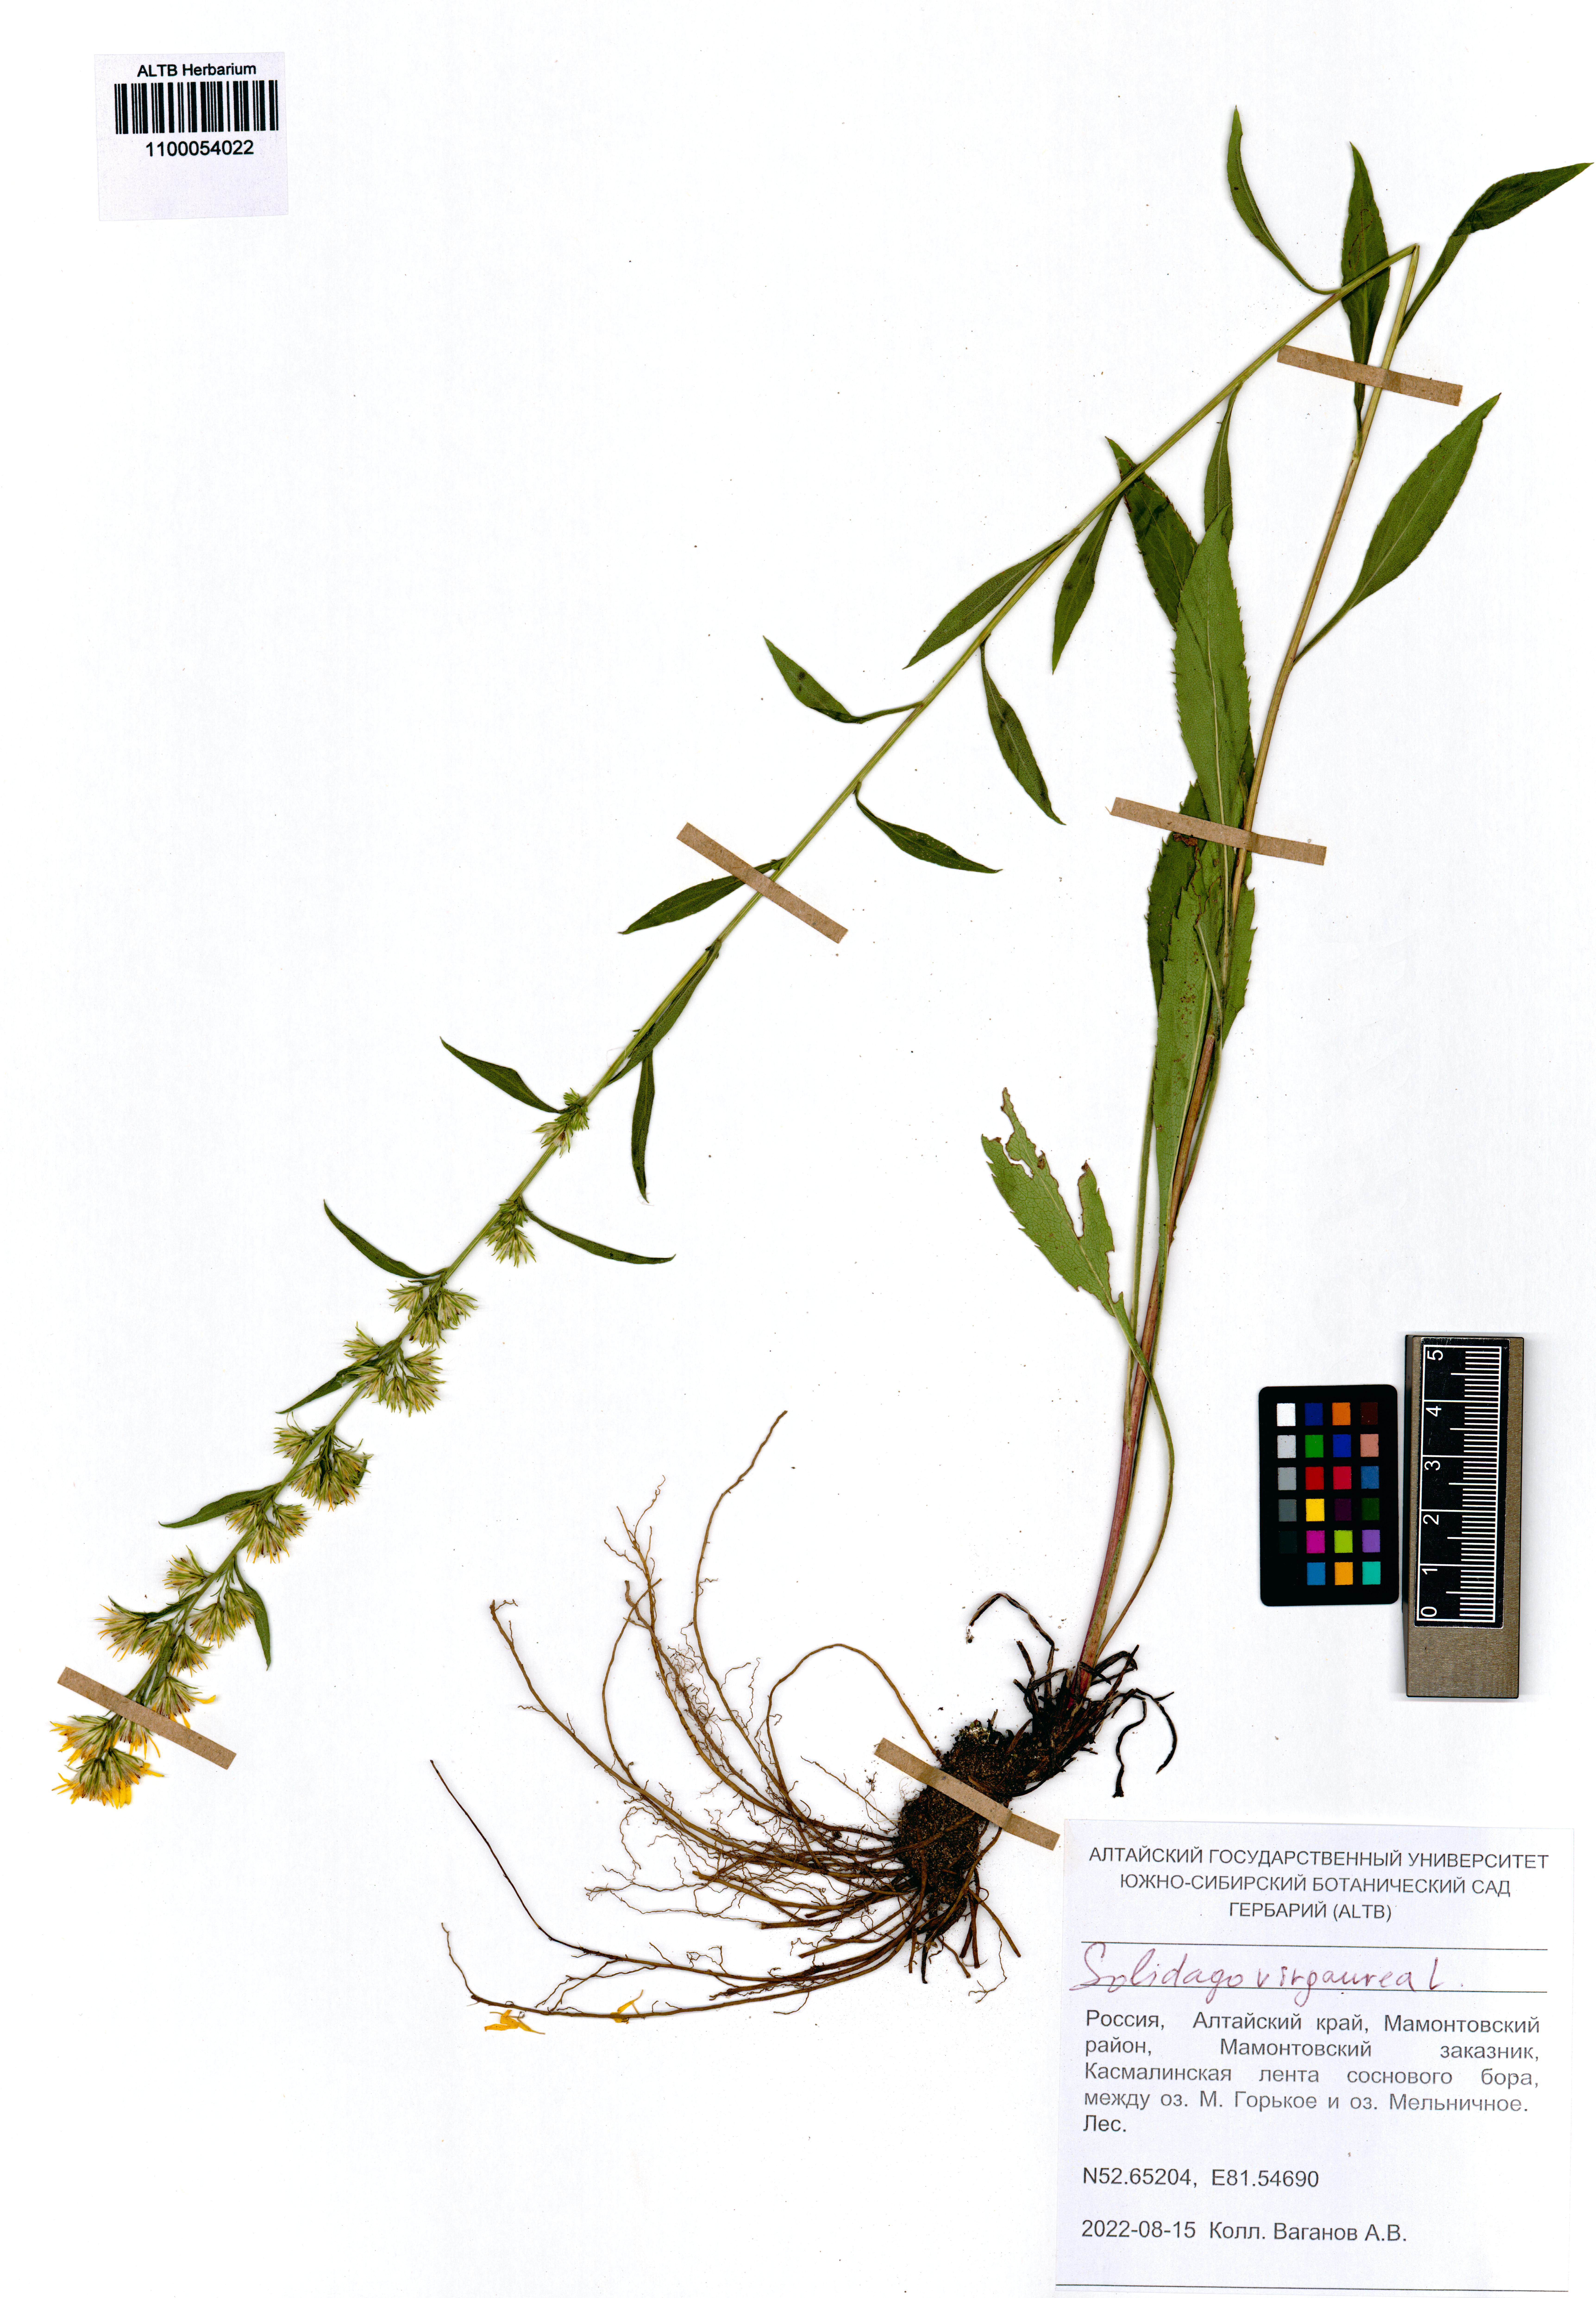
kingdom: Plantae
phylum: Tracheophyta
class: Magnoliopsida
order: Asterales
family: Asteraceae
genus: Solidago
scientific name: Solidago virgaurea
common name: Goldenrod
